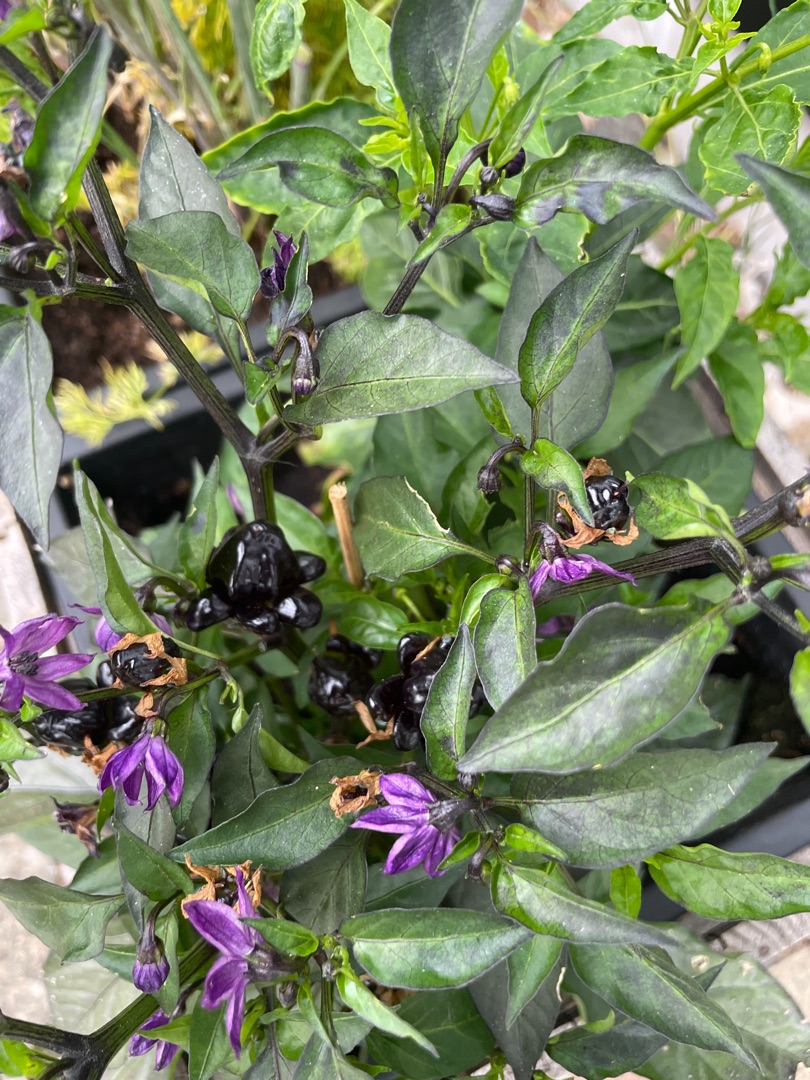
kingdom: Plantae
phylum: Tracheophyta
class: Magnoliopsida
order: Solanales
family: Solanaceae
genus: Capsicum
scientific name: Capsicum annuum
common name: Spansk peber
